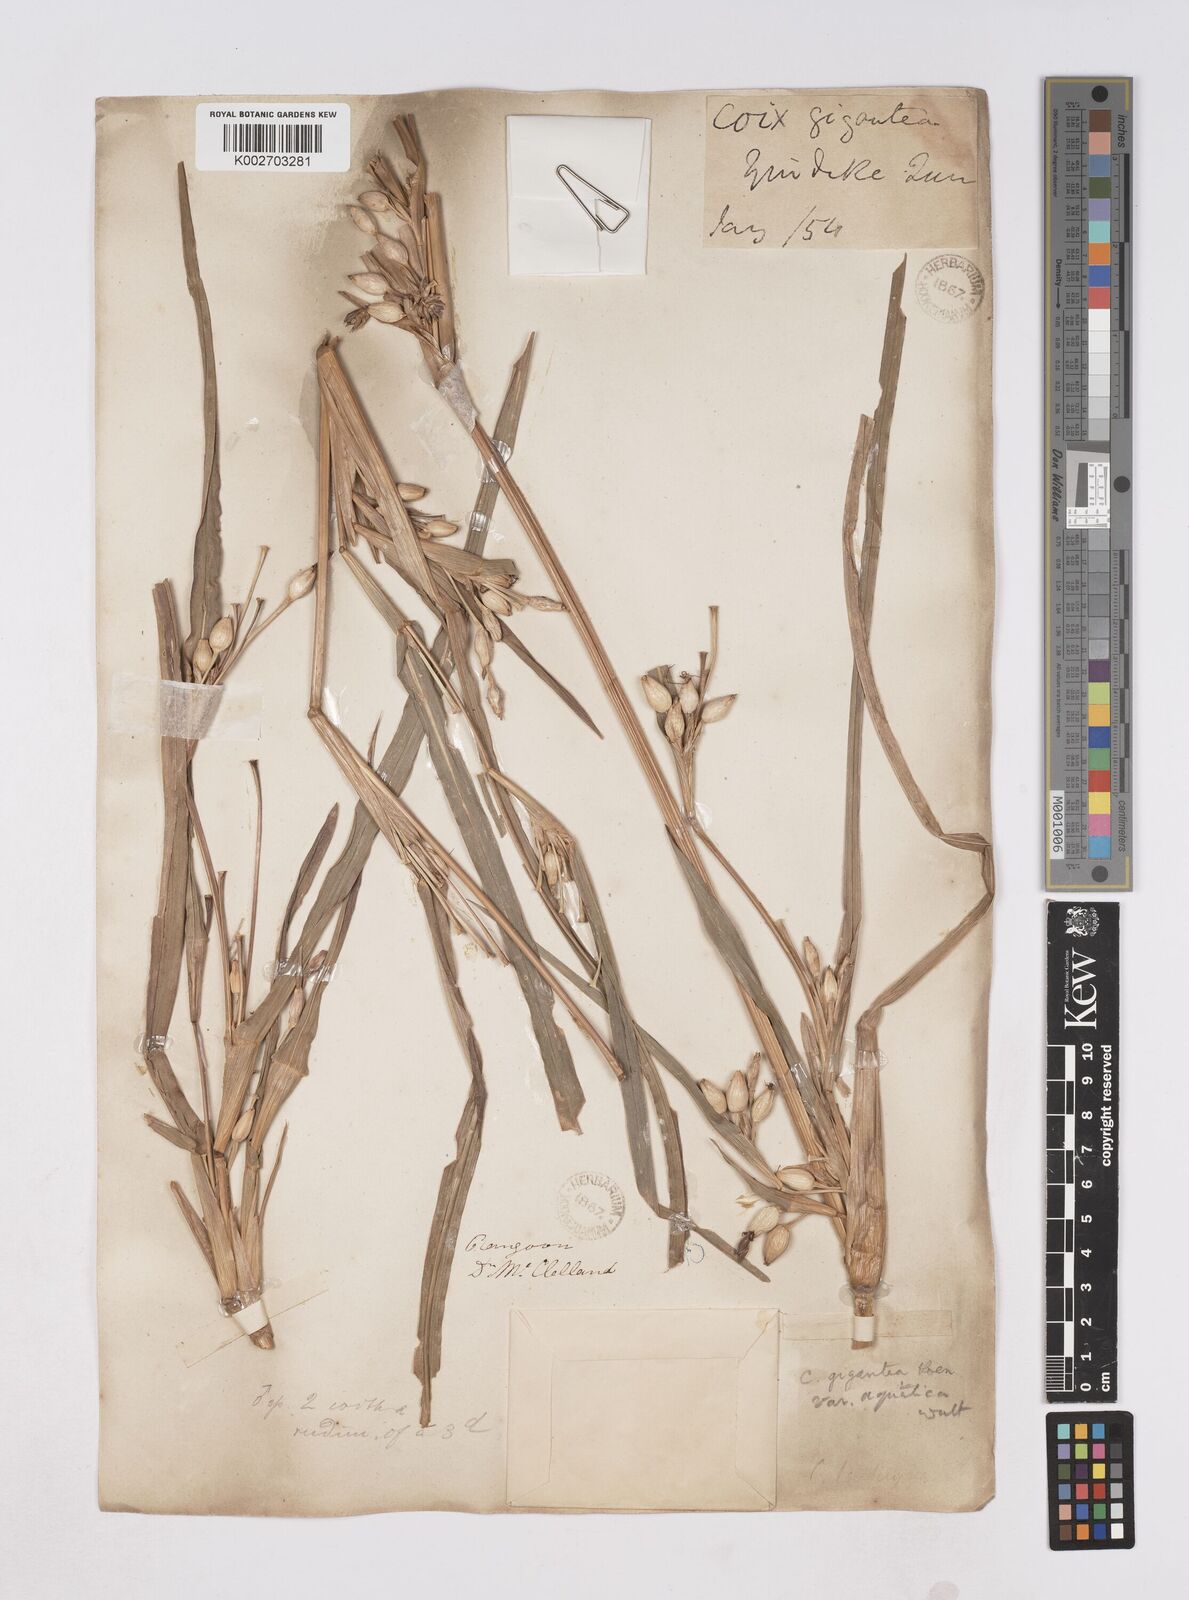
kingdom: Plantae
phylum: Tracheophyta
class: Liliopsida
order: Poales
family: Poaceae
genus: Coix
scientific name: Coix aquatica
